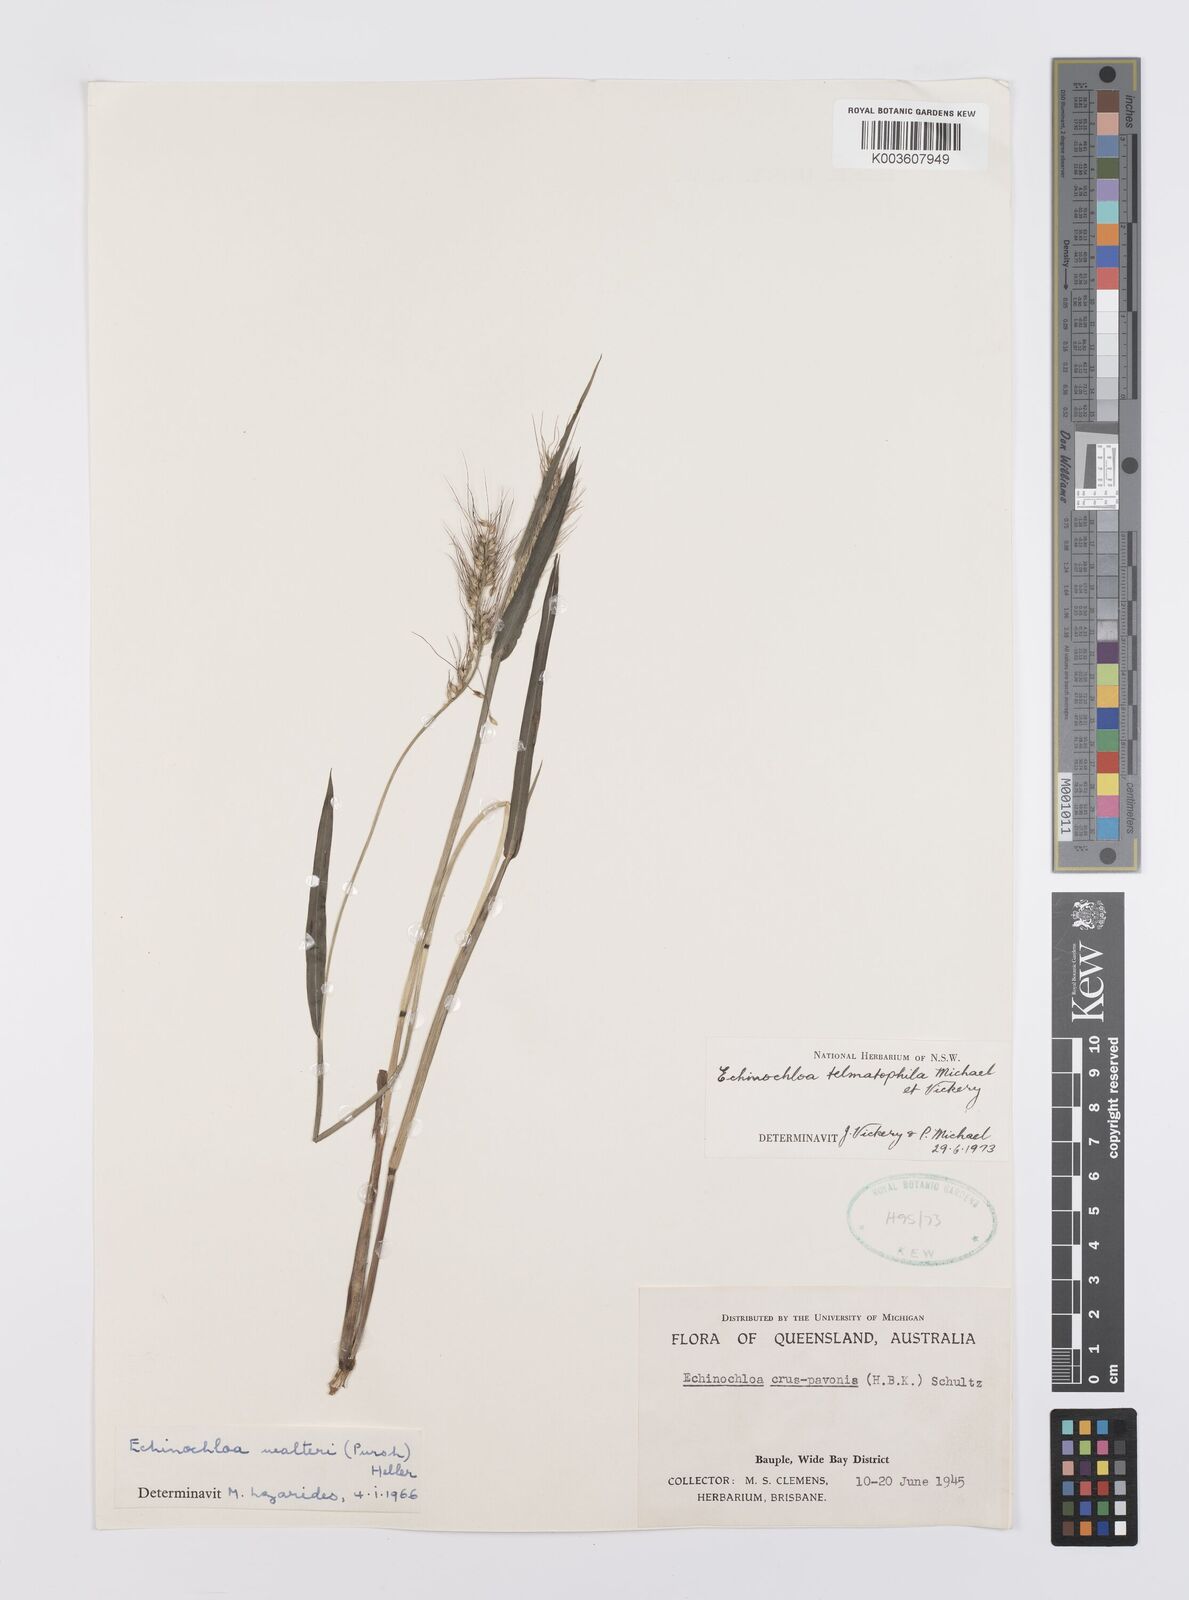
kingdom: Plantae
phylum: Tracheophyta
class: Liliopsida
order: Poales
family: Poaceae
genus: Echinochloa
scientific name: Echinochloa crus-galli
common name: Cockspur
